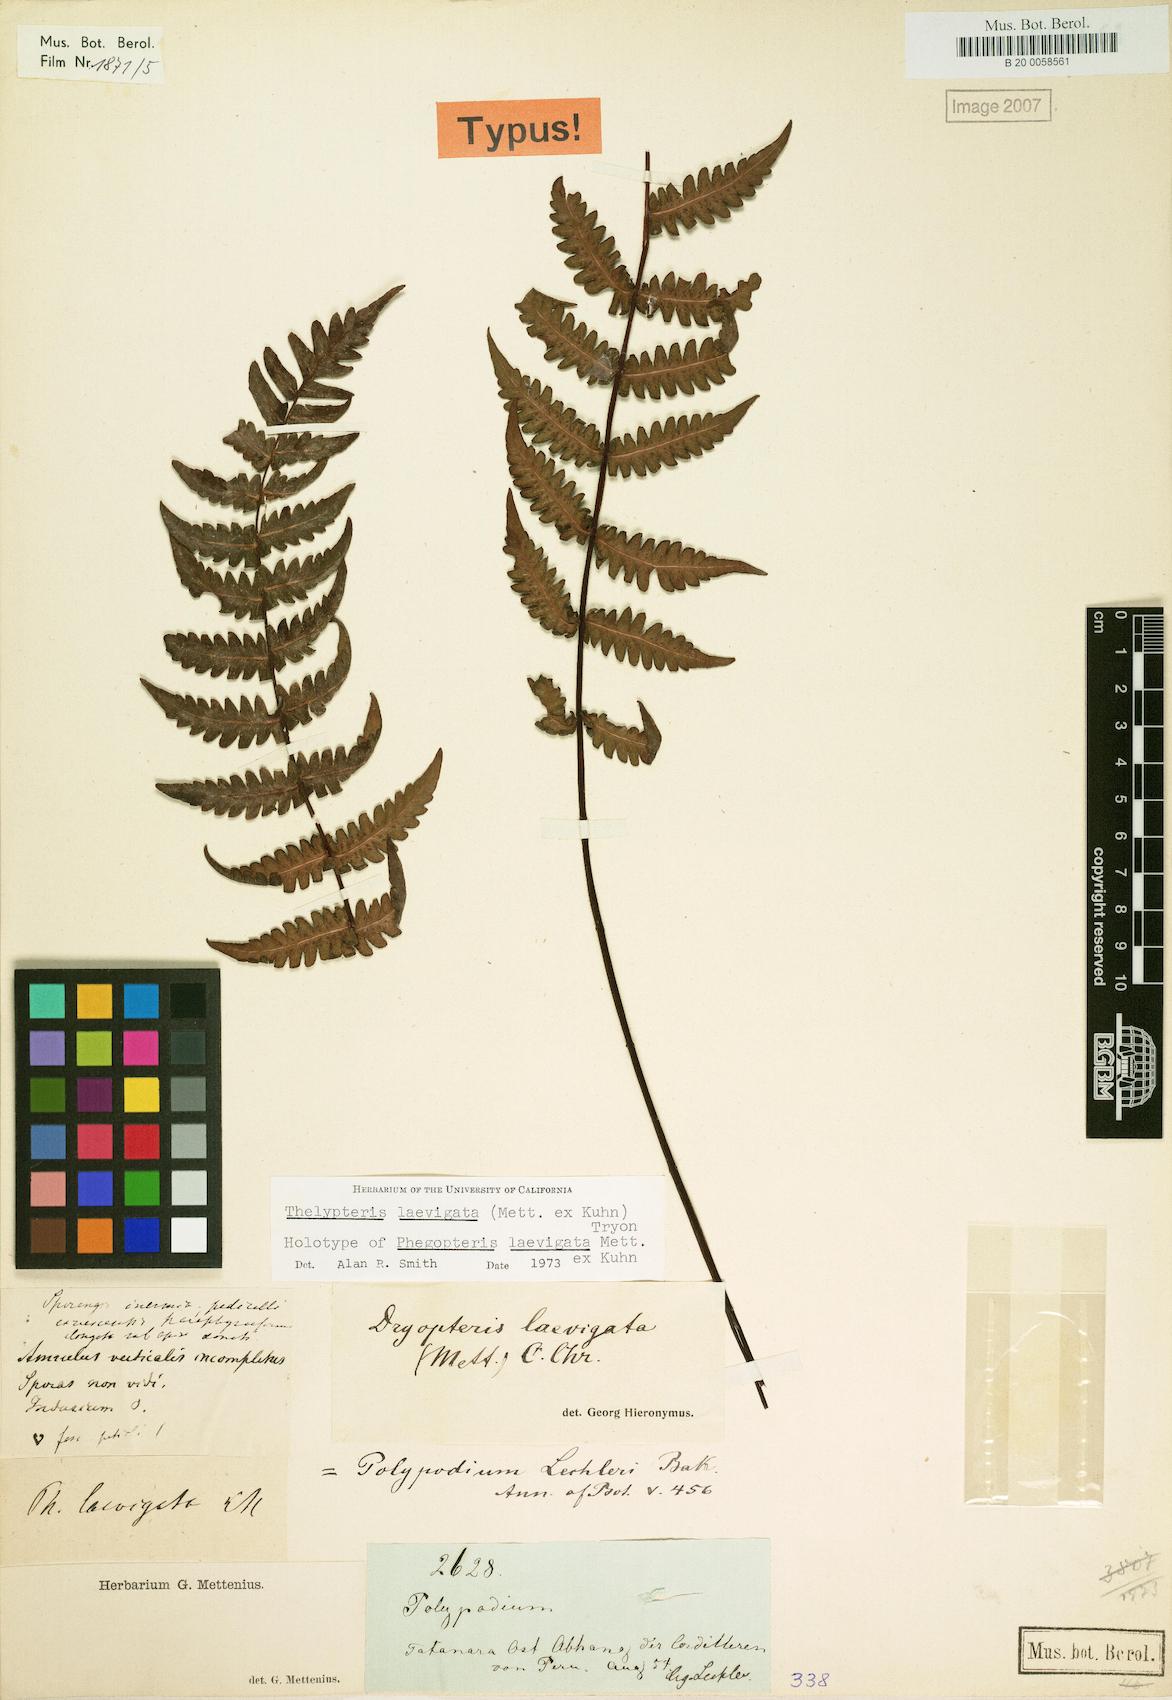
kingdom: Plantae
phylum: Tracheophyta
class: Polypodiopsida
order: Polypodiales
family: Thelypteridaceae
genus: Amauropelta
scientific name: Amauropelta laevigata
